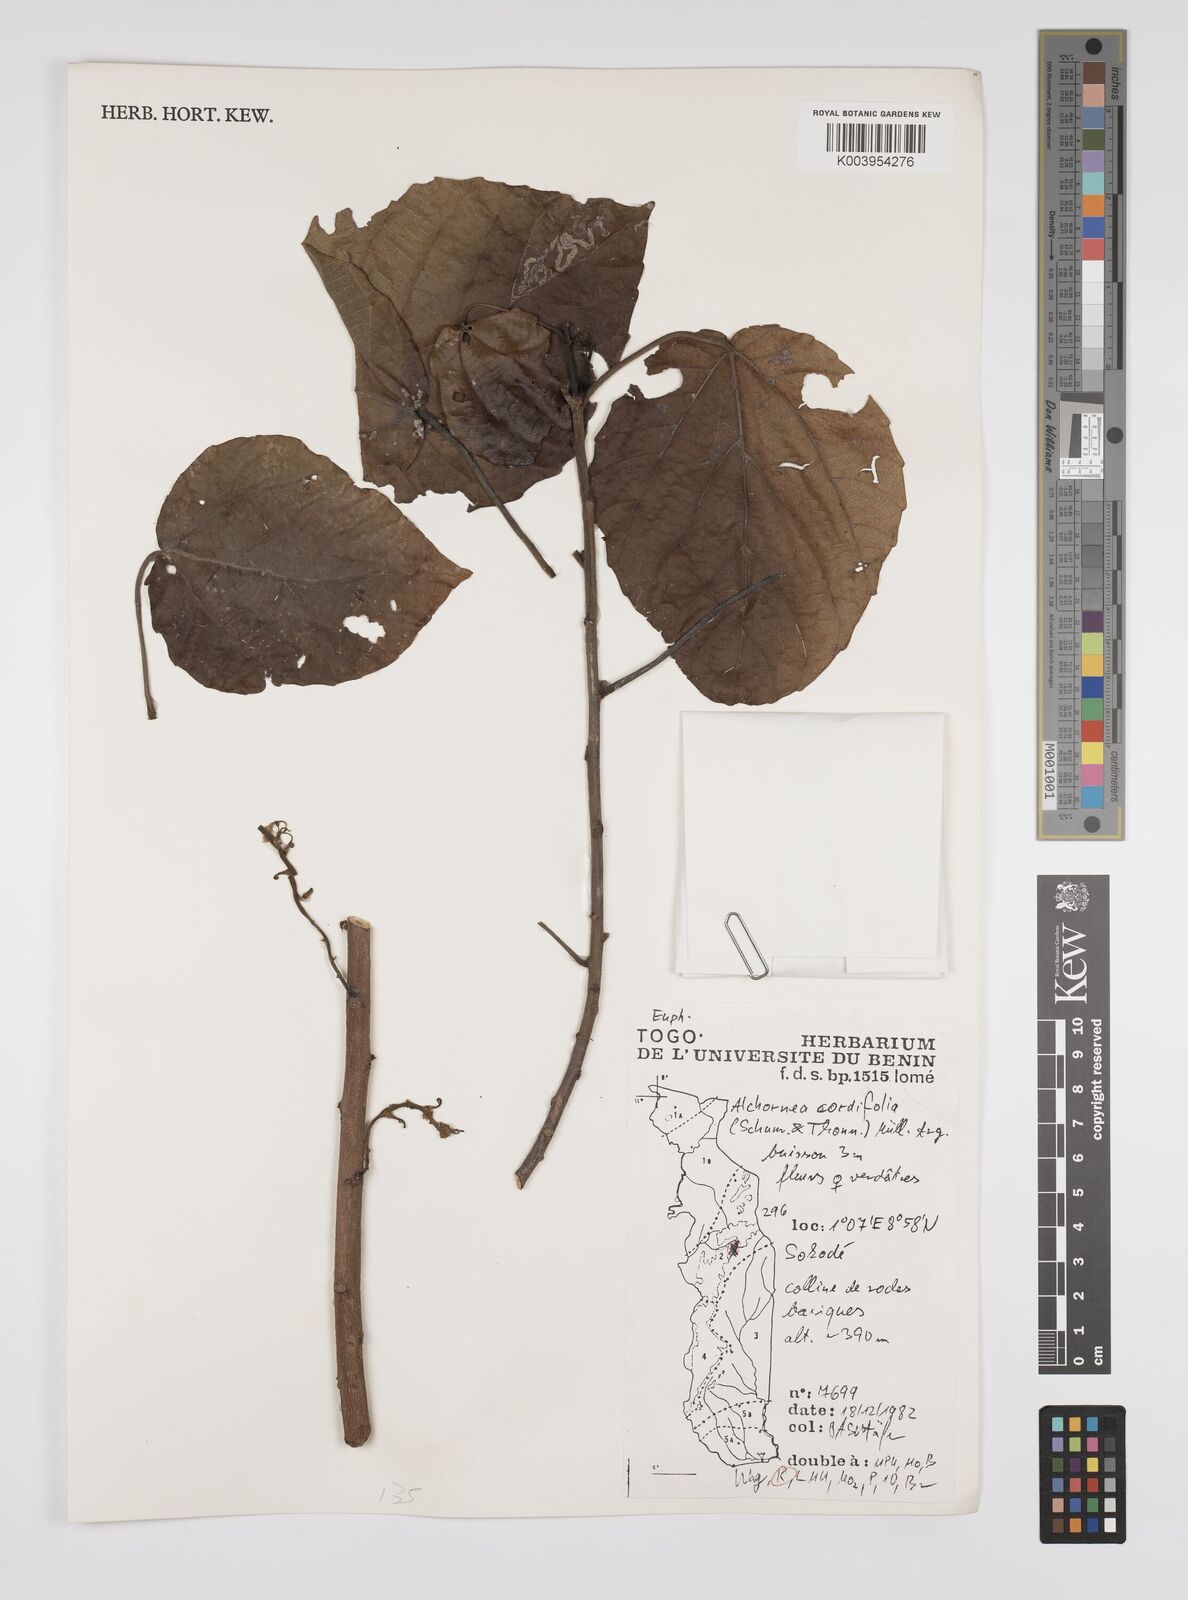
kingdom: Plantae
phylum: Tracheophyta
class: Magnoliopsida
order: Malpighiales
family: Euphorbiaceae
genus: Alchornea
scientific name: Alchornea cordifolia
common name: Christmasbush
